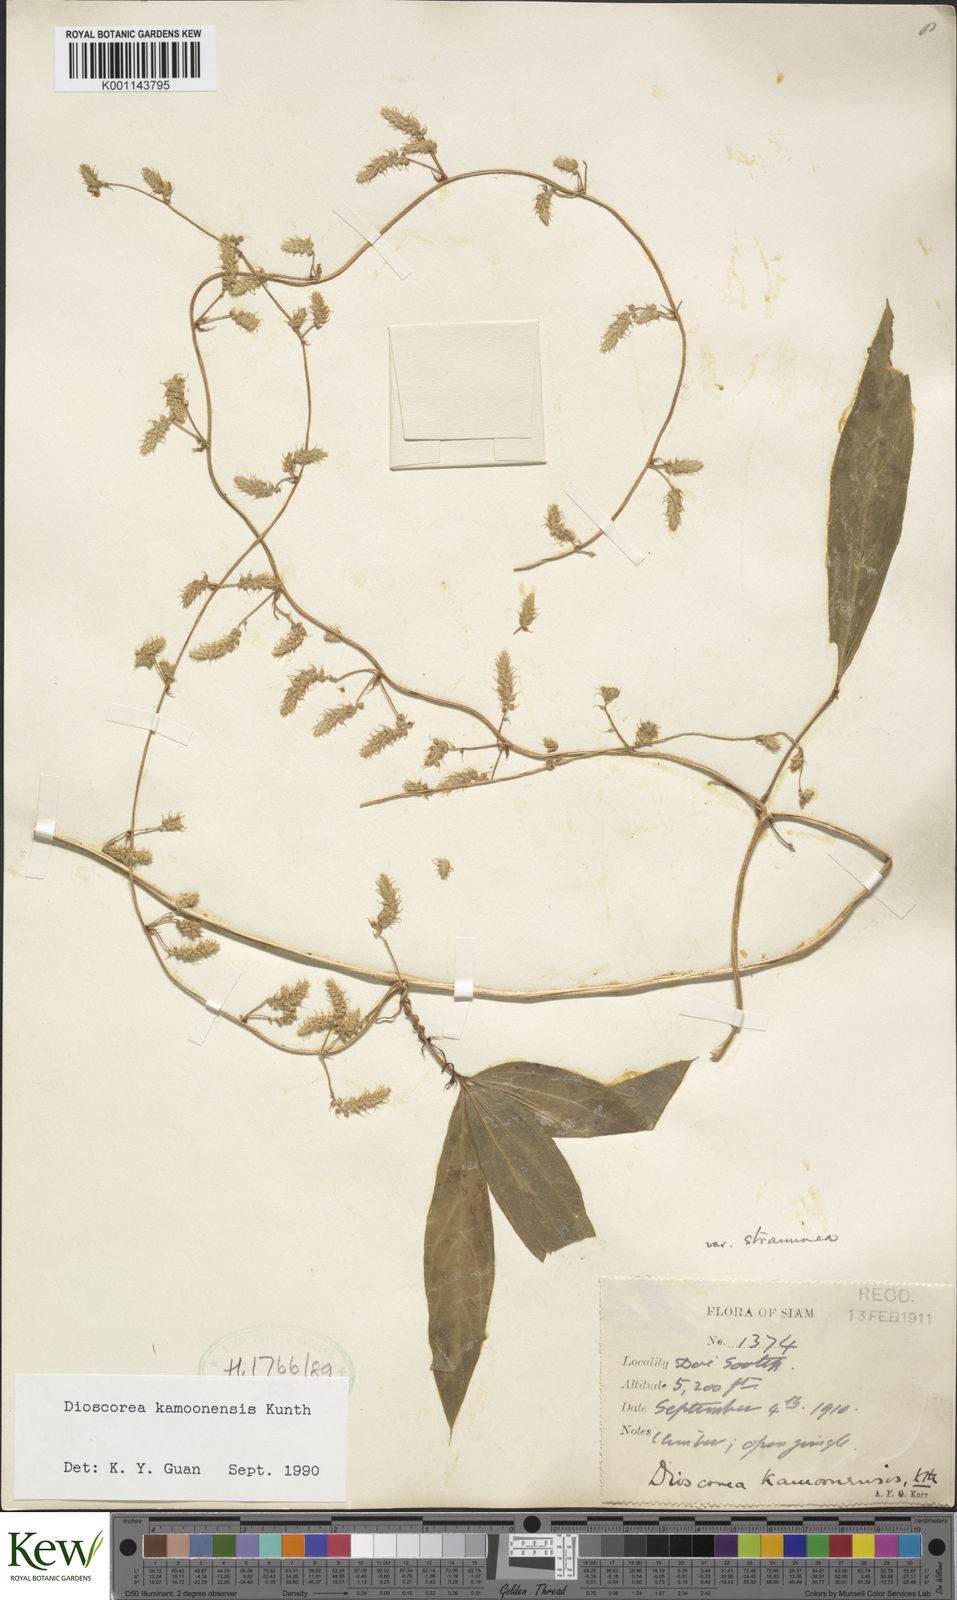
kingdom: Plantae
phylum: Tracheophyta
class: Liliopsida
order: Dioscoreales
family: Dioscoreaceae
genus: Dioscorea
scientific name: Dioscorea kamoonensis
